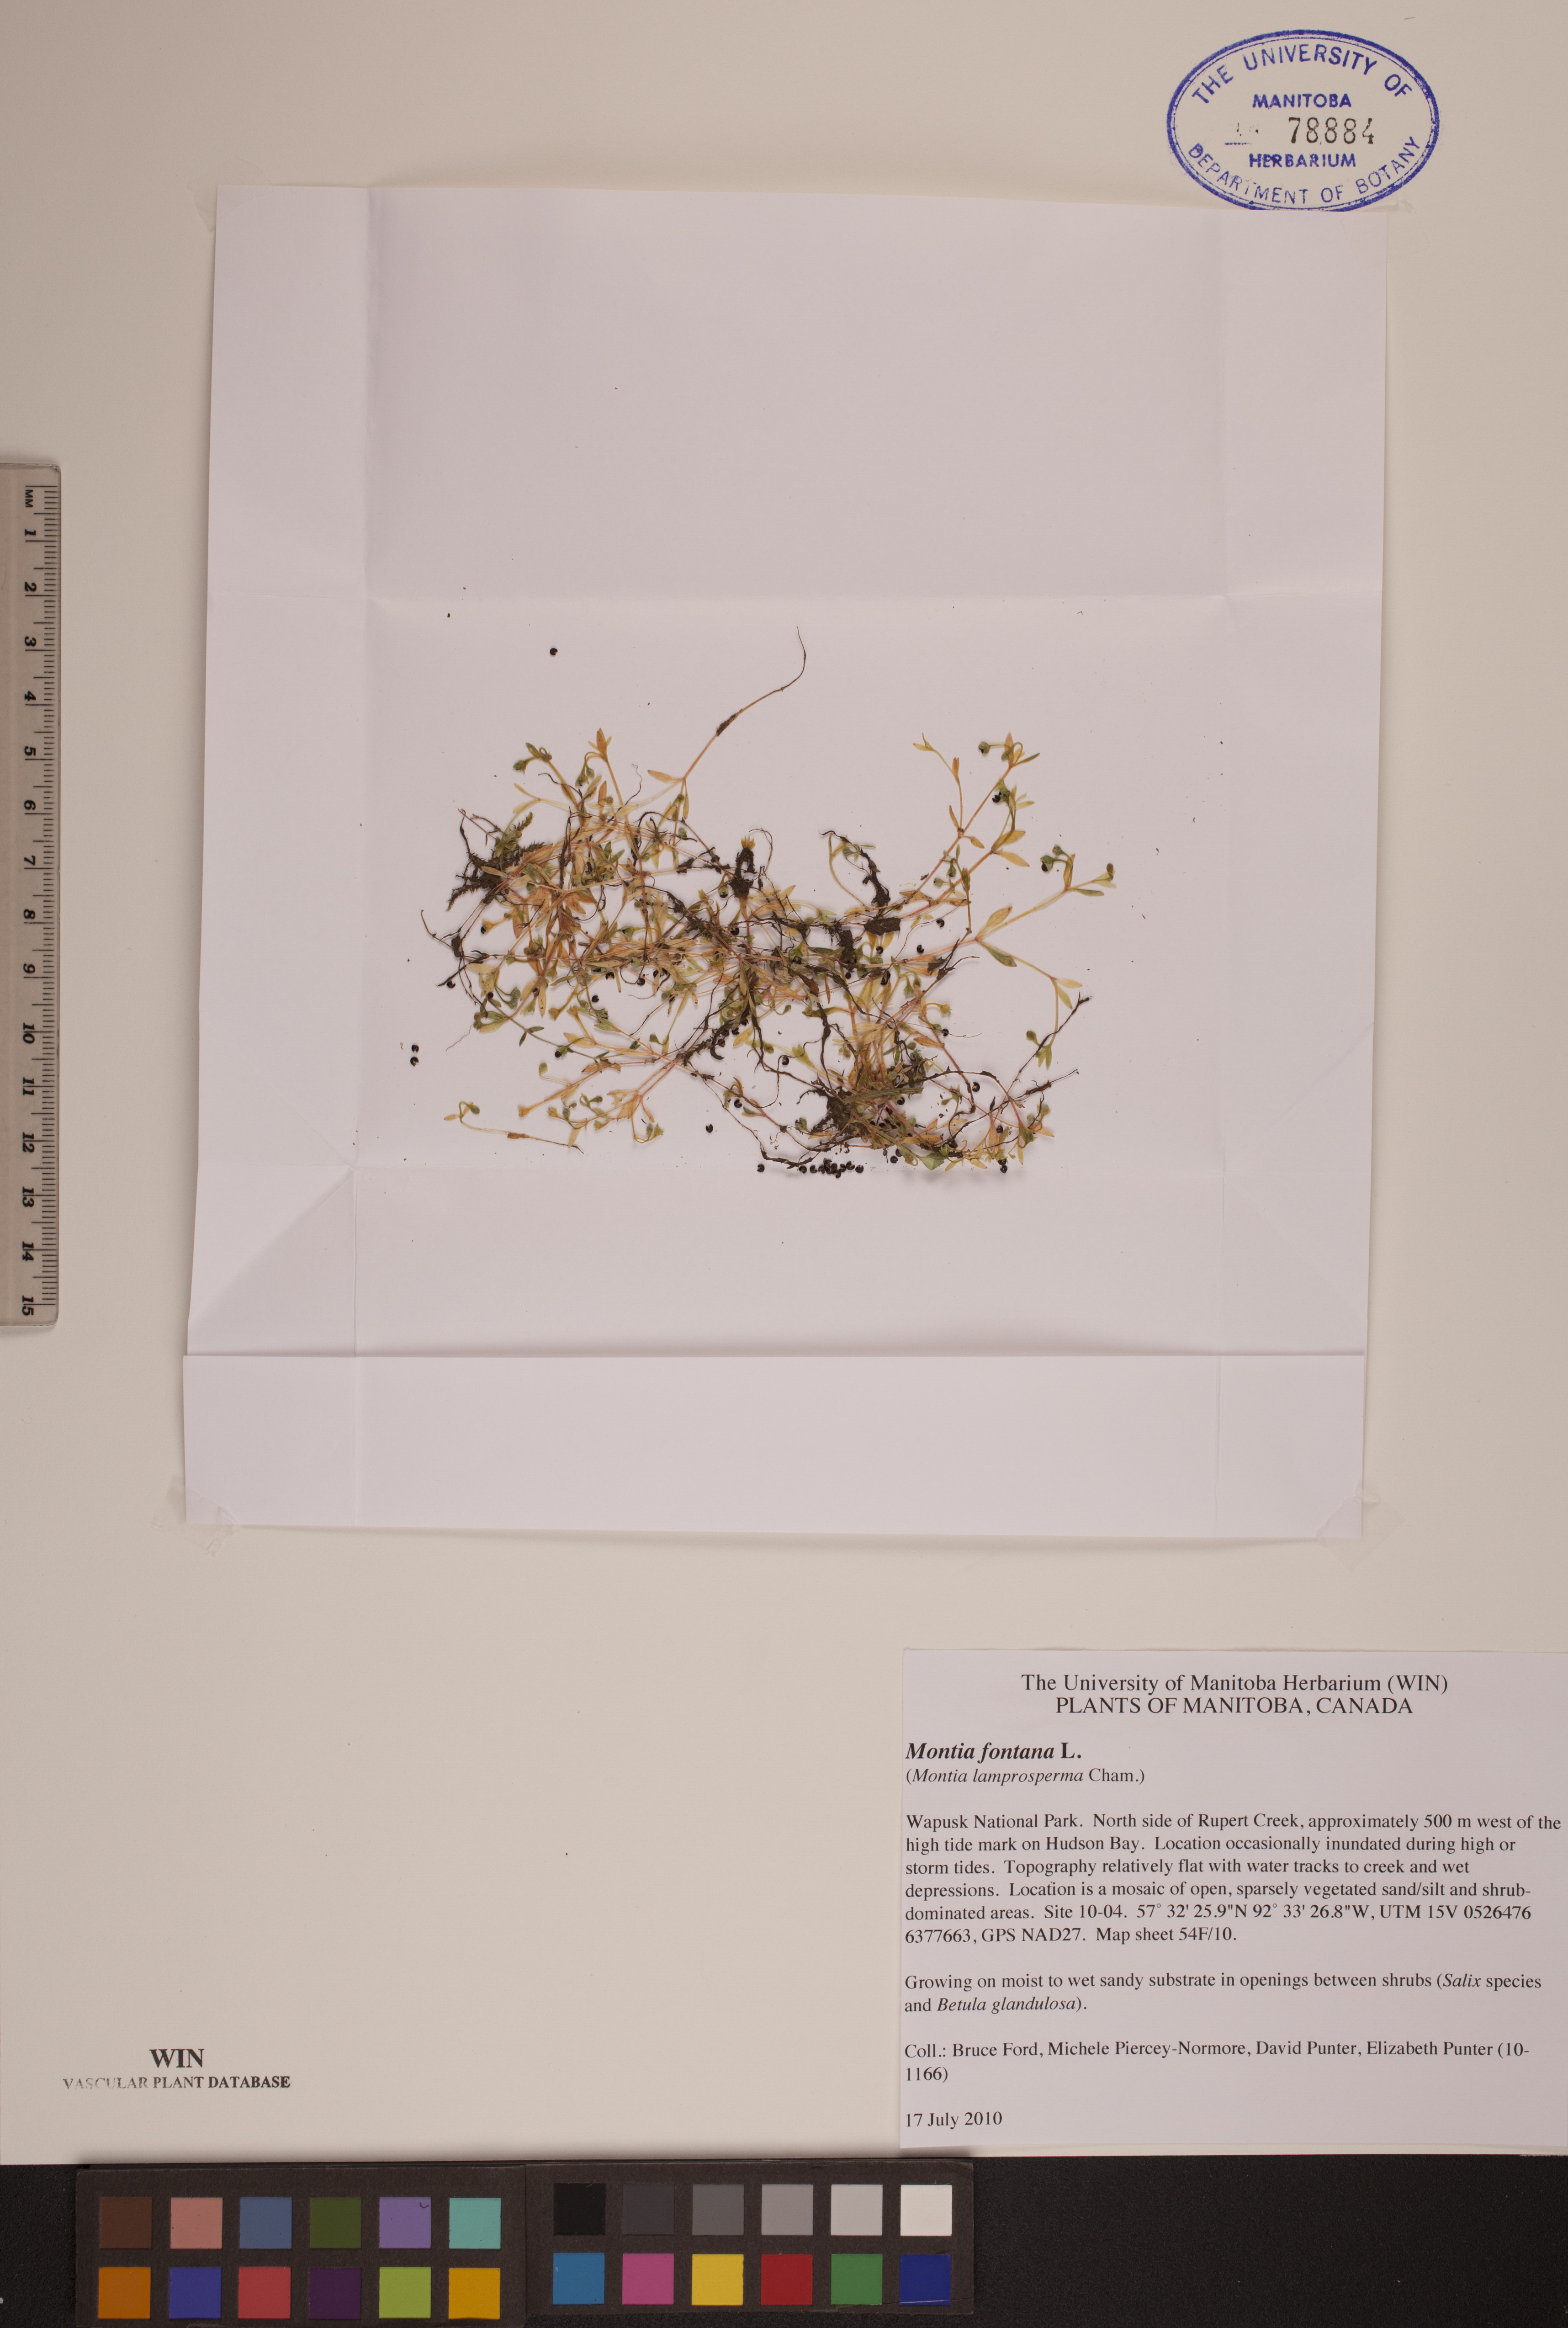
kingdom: Plantae
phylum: Tracheophyta
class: Magnoliopsida
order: Caryophyllales
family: Montiaceae
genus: Montia
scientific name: Montia fontana
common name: Blinks
